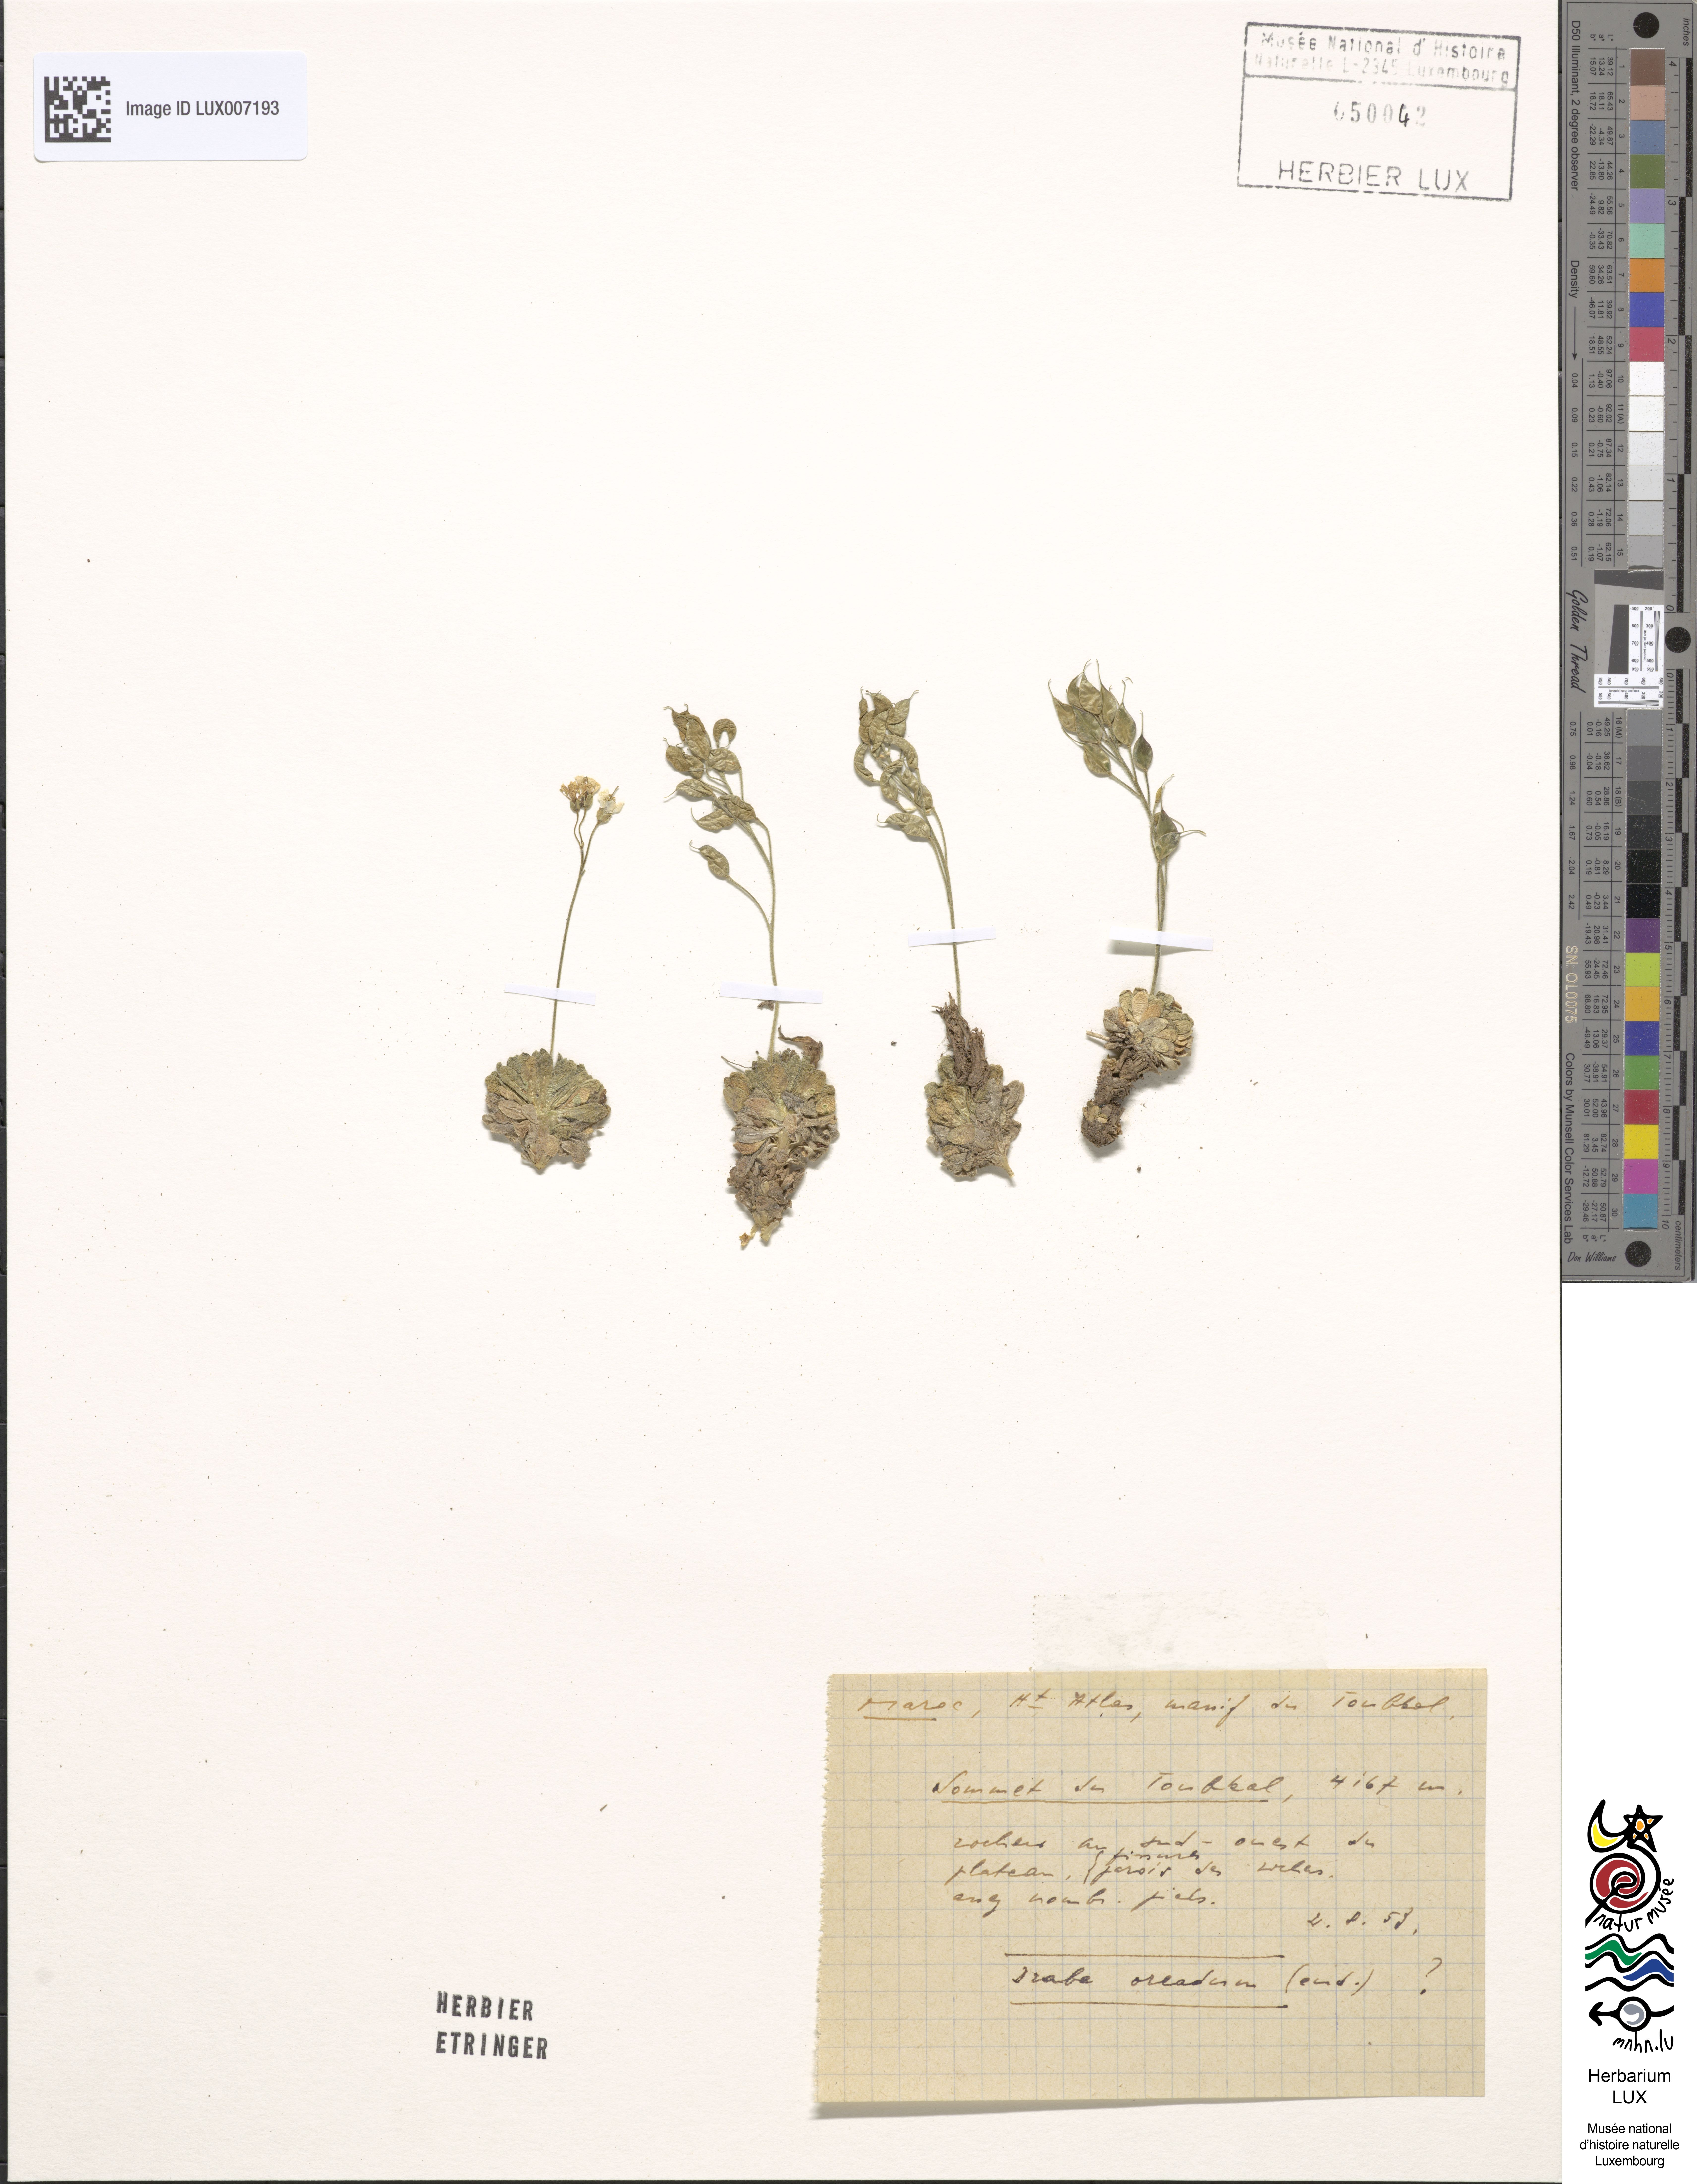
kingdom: Plantae
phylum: Tracheophyta
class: Magnoliopsida
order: Brassicales
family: Brassicaceae
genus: Draba
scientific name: Draba
